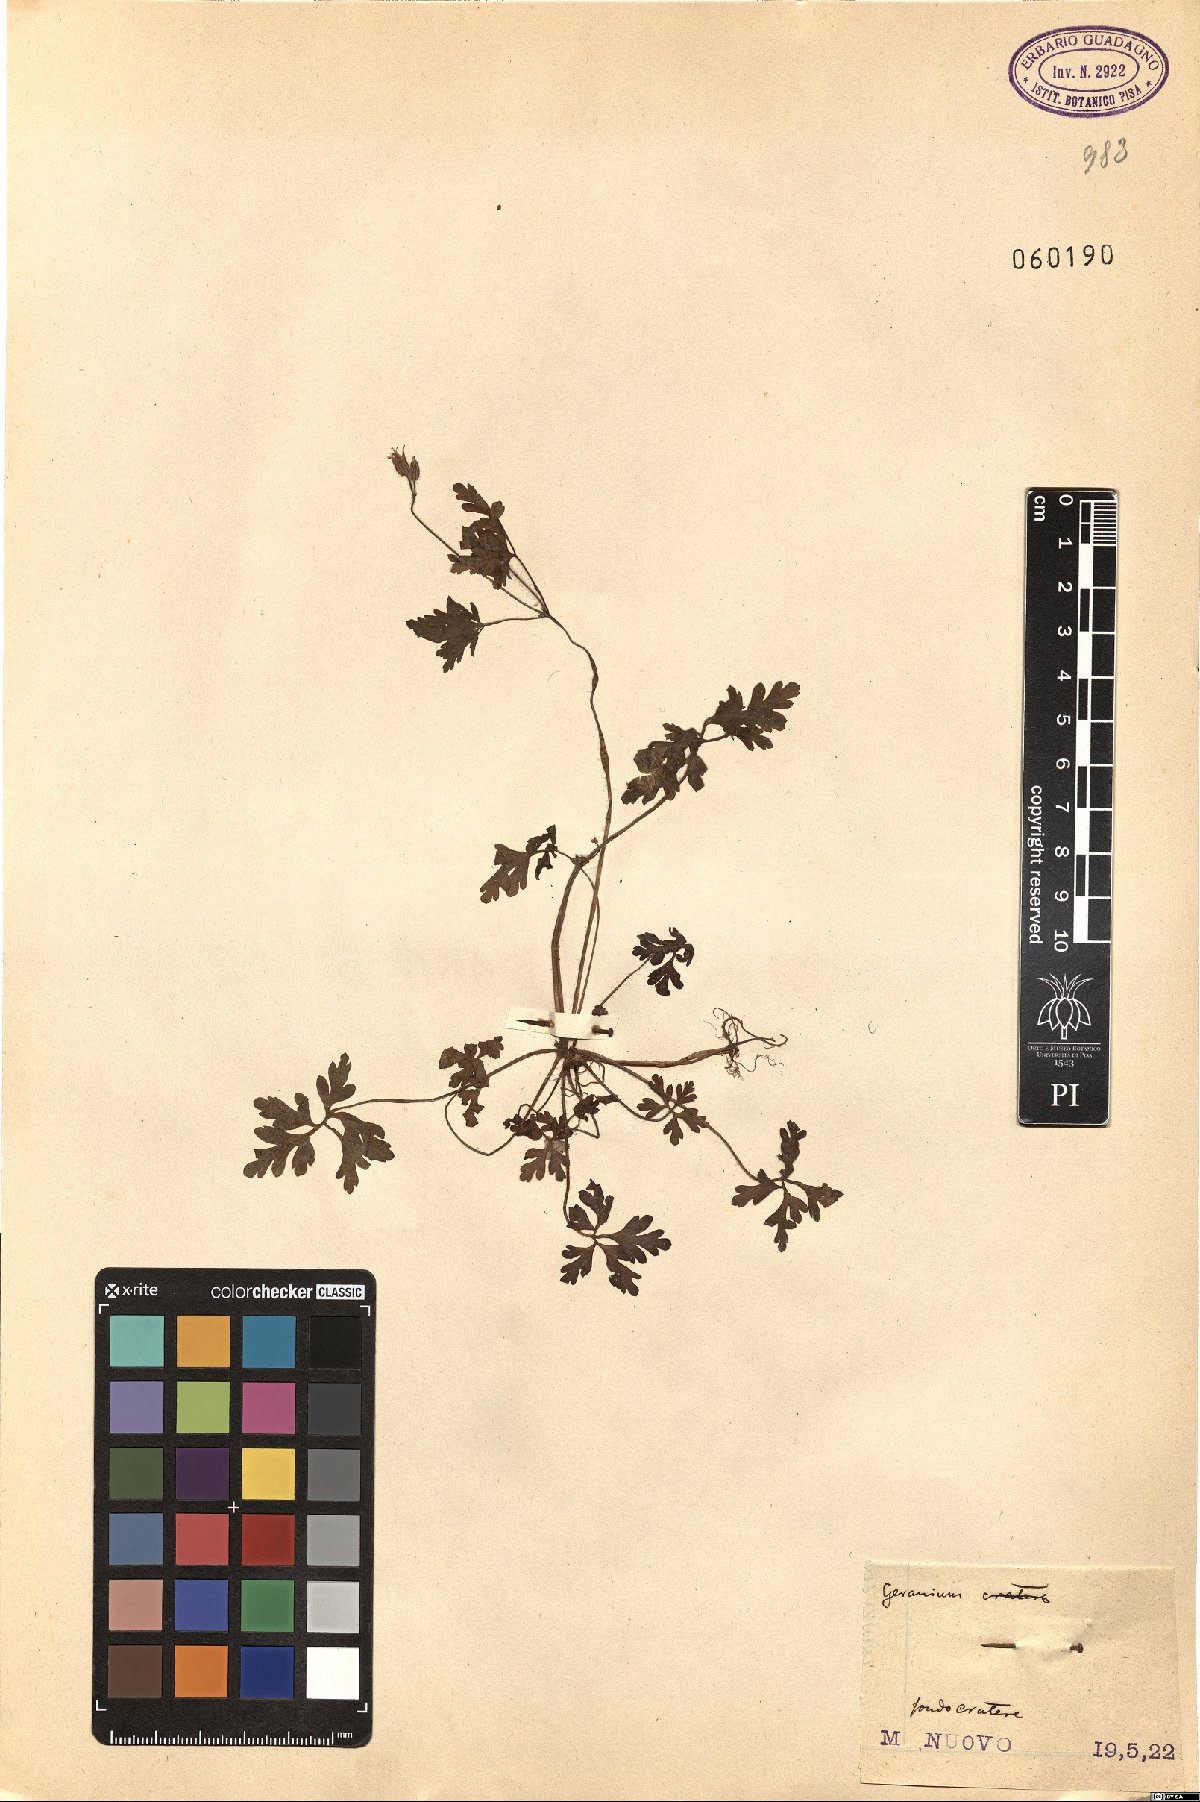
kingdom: Plantae
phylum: Tracheophyta
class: Magnoliopsida
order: Geraniales
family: Geraniaceae
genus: Geranium
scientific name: Geranium
